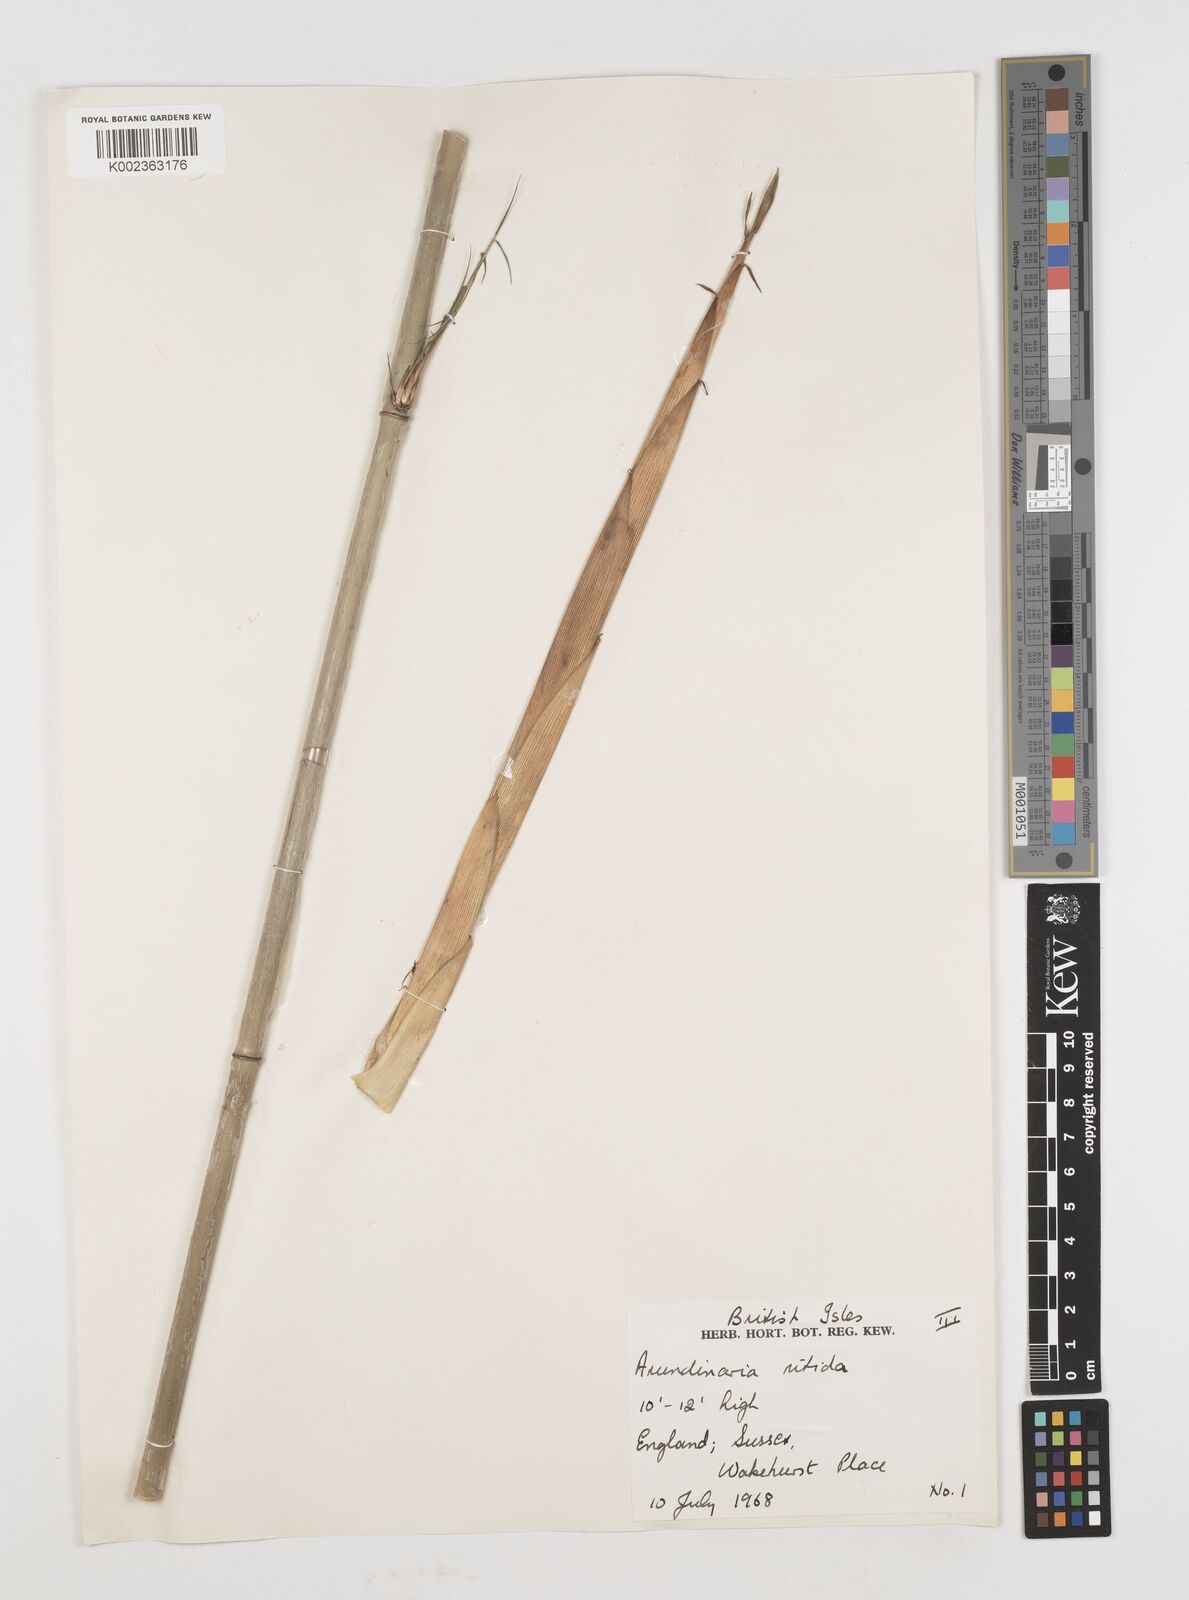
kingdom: Plantae
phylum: Tracheophyta
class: Liliopsida
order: Poales
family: Poaceae
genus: Fargesia
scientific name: Fargesia nitida ex
